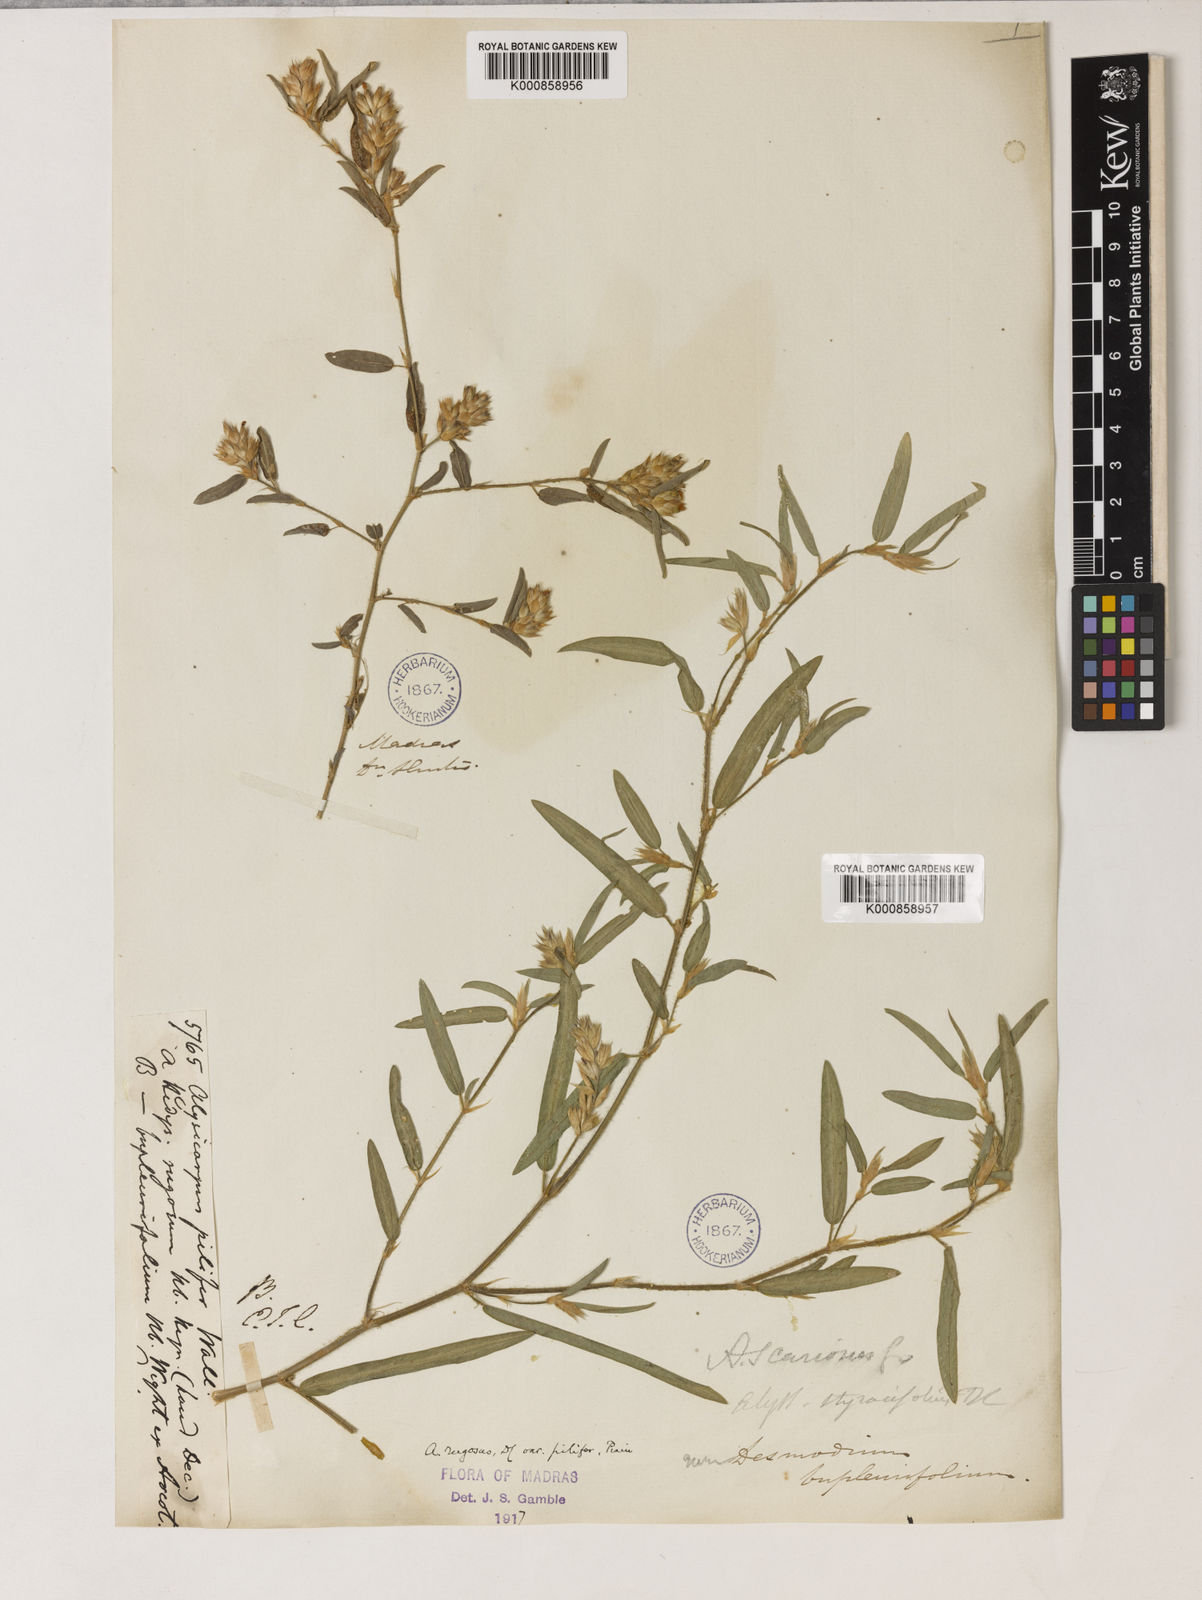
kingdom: Plantae
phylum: Tracheophyta
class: Magnoliopsida
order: Fabales
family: Fabaceae
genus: Alysicarpus
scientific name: Alysicarpus rugosus
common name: Red moneywort
